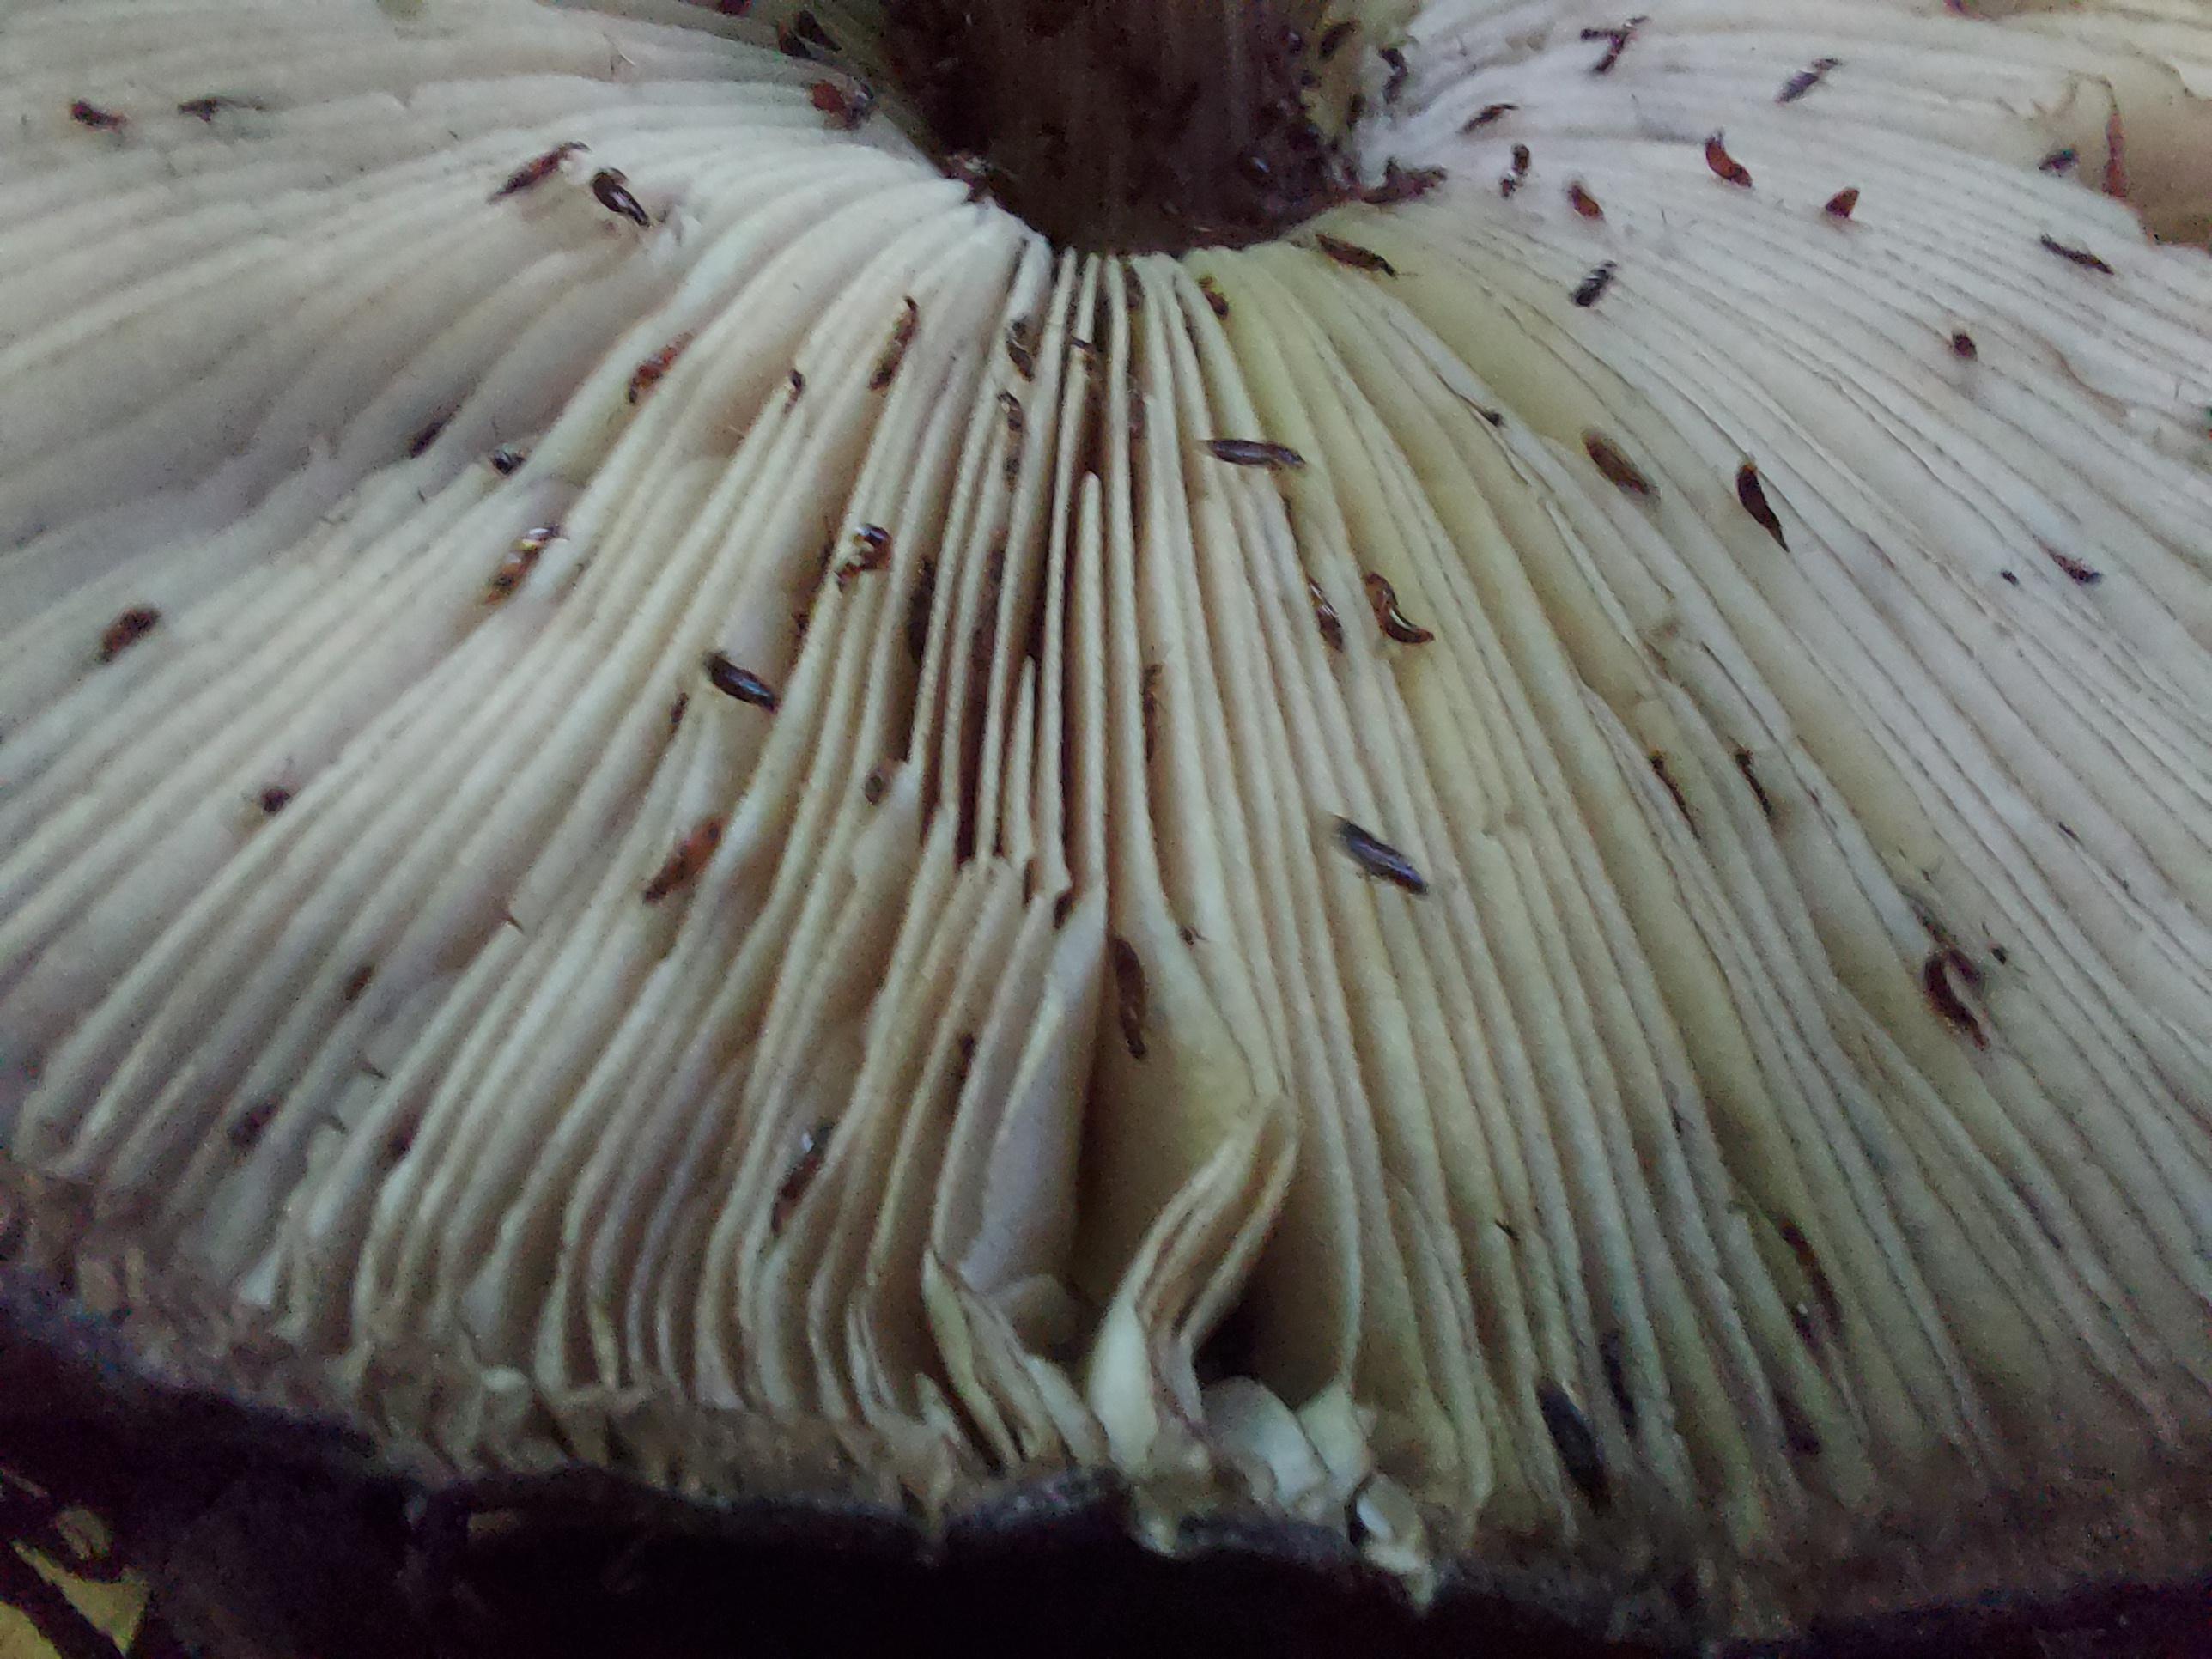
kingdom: Fungi
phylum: Basidiomycota
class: Agaricomycetes
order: Agaricales
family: Pluteaceae
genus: Pluteus
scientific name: Pluteus atromarginatus
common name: sortrandet skærmhat
